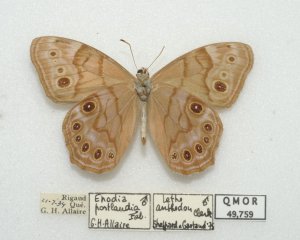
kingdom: Animalia
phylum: Arthropoda
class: Insecta
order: Lepidoptera
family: Nymphalidae
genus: Lethe
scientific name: Lethe anthedon
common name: Northern Pearly-Eye
